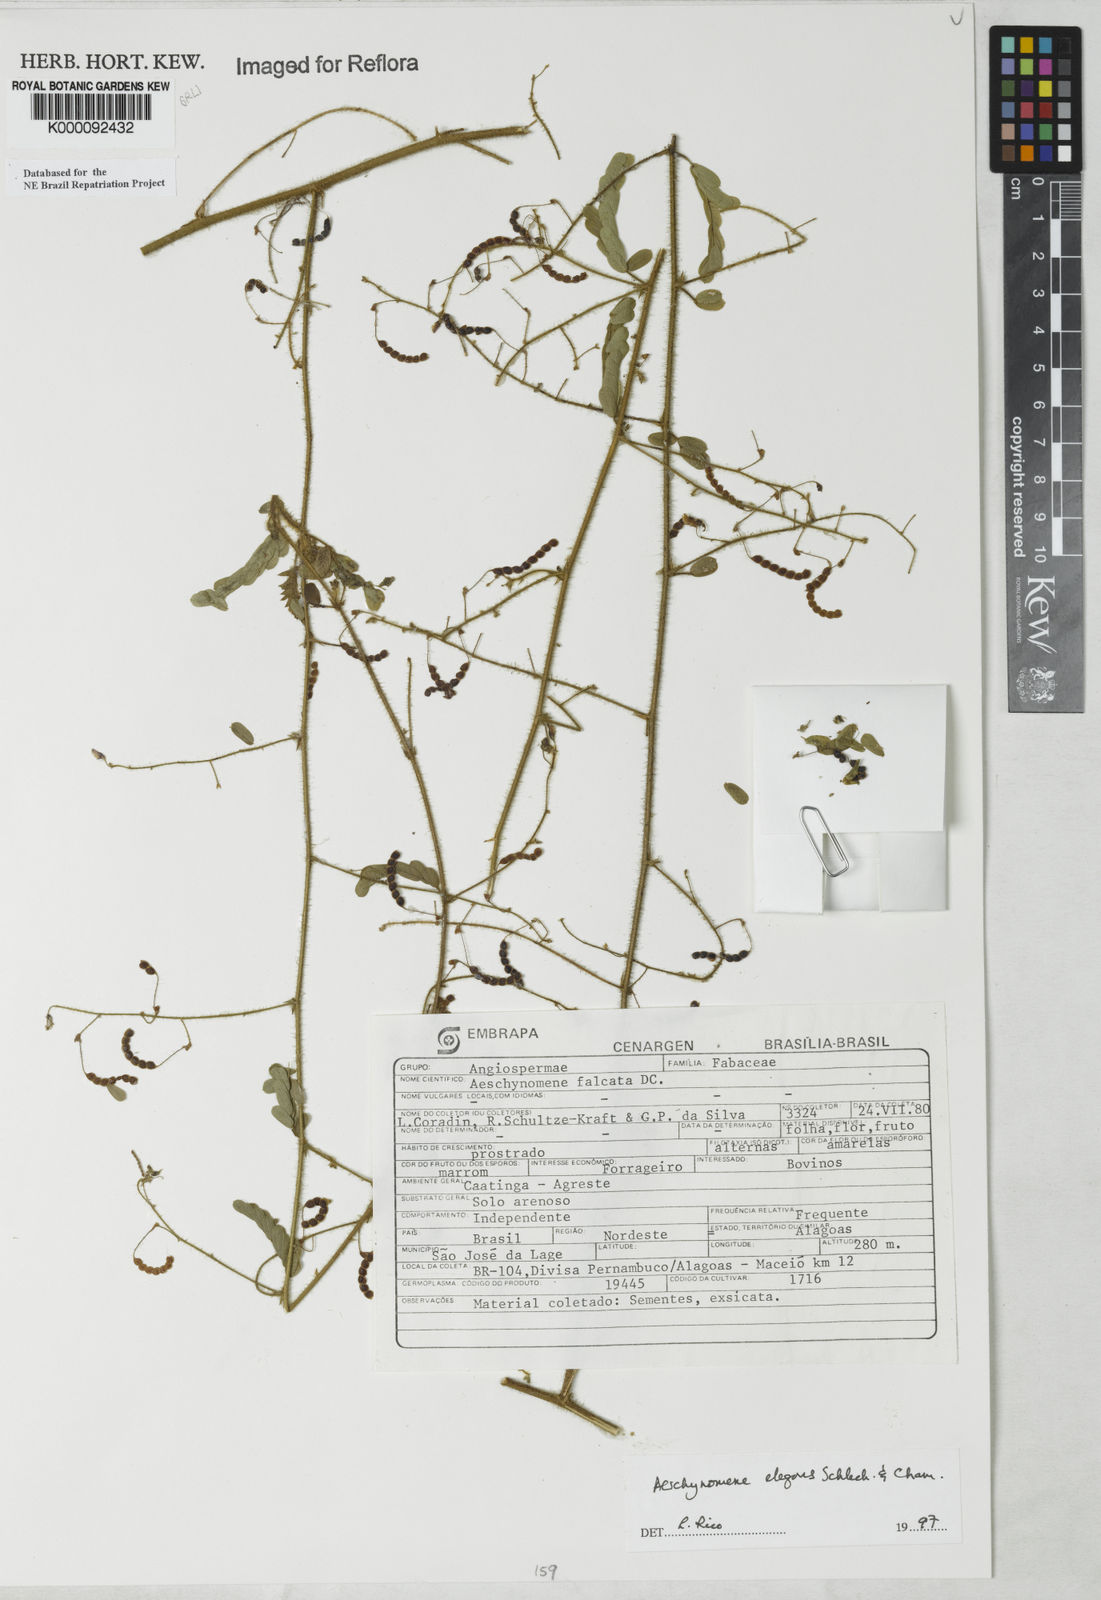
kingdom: Plantae
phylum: Tracheophyta
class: Magnoliopsida
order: Fabales
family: Fabaceae
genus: Ctenodon
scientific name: Ctenodon falcatus
